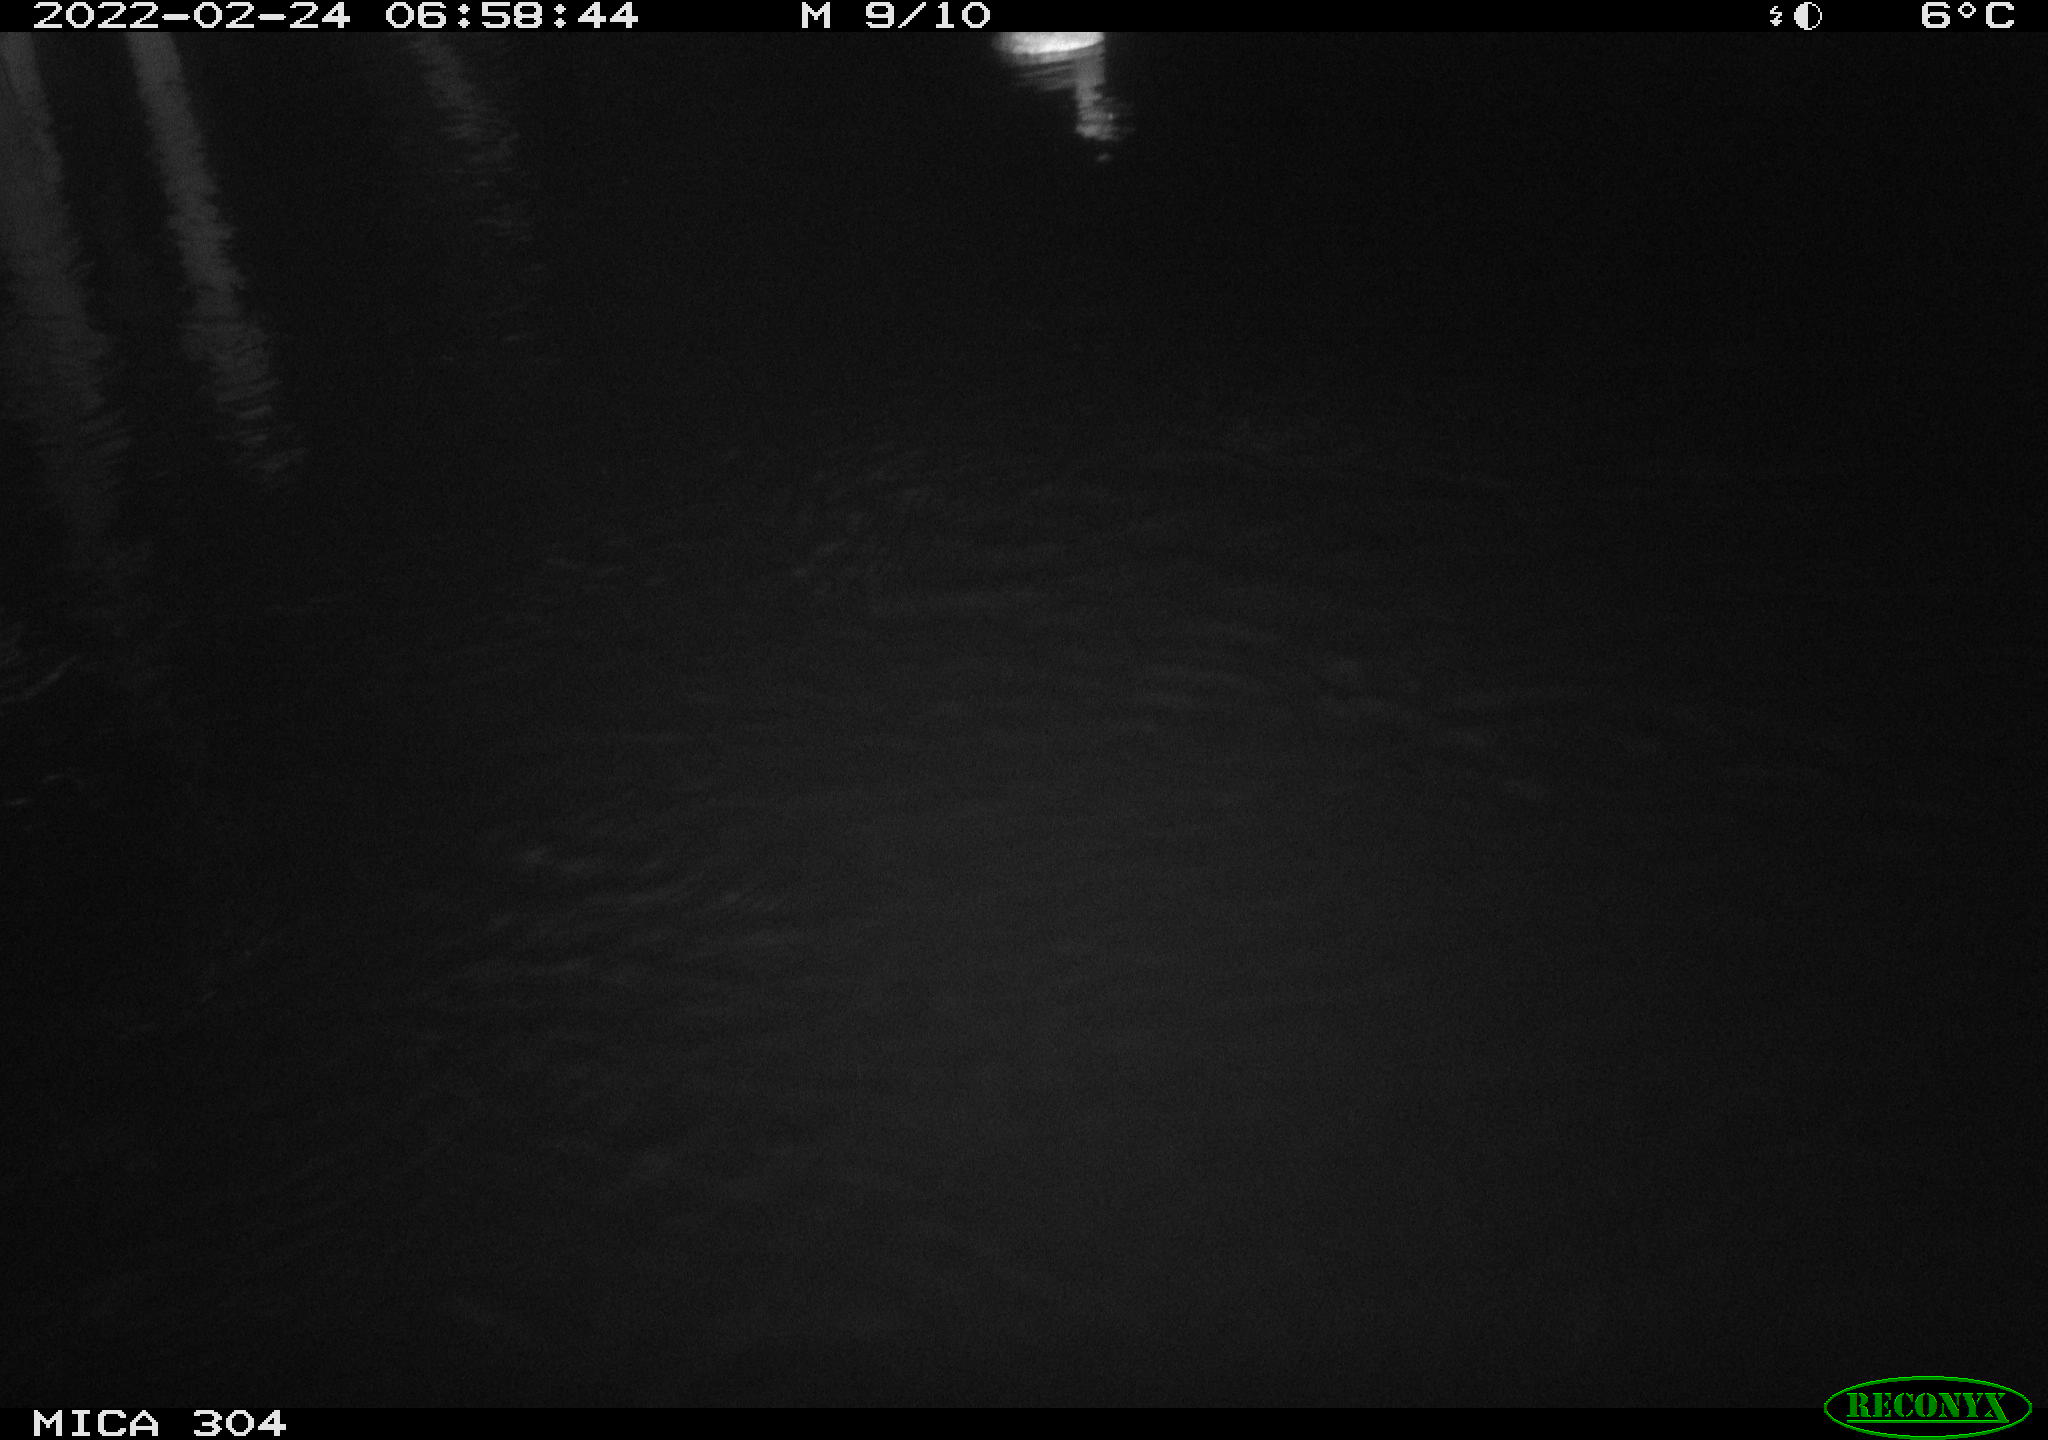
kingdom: Animalia
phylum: Chordata
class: Aves
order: Podicipediformes
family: Podicipedidae
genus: Tachybaptus
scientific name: Tachybaptus ruficollis
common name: Little grebe
